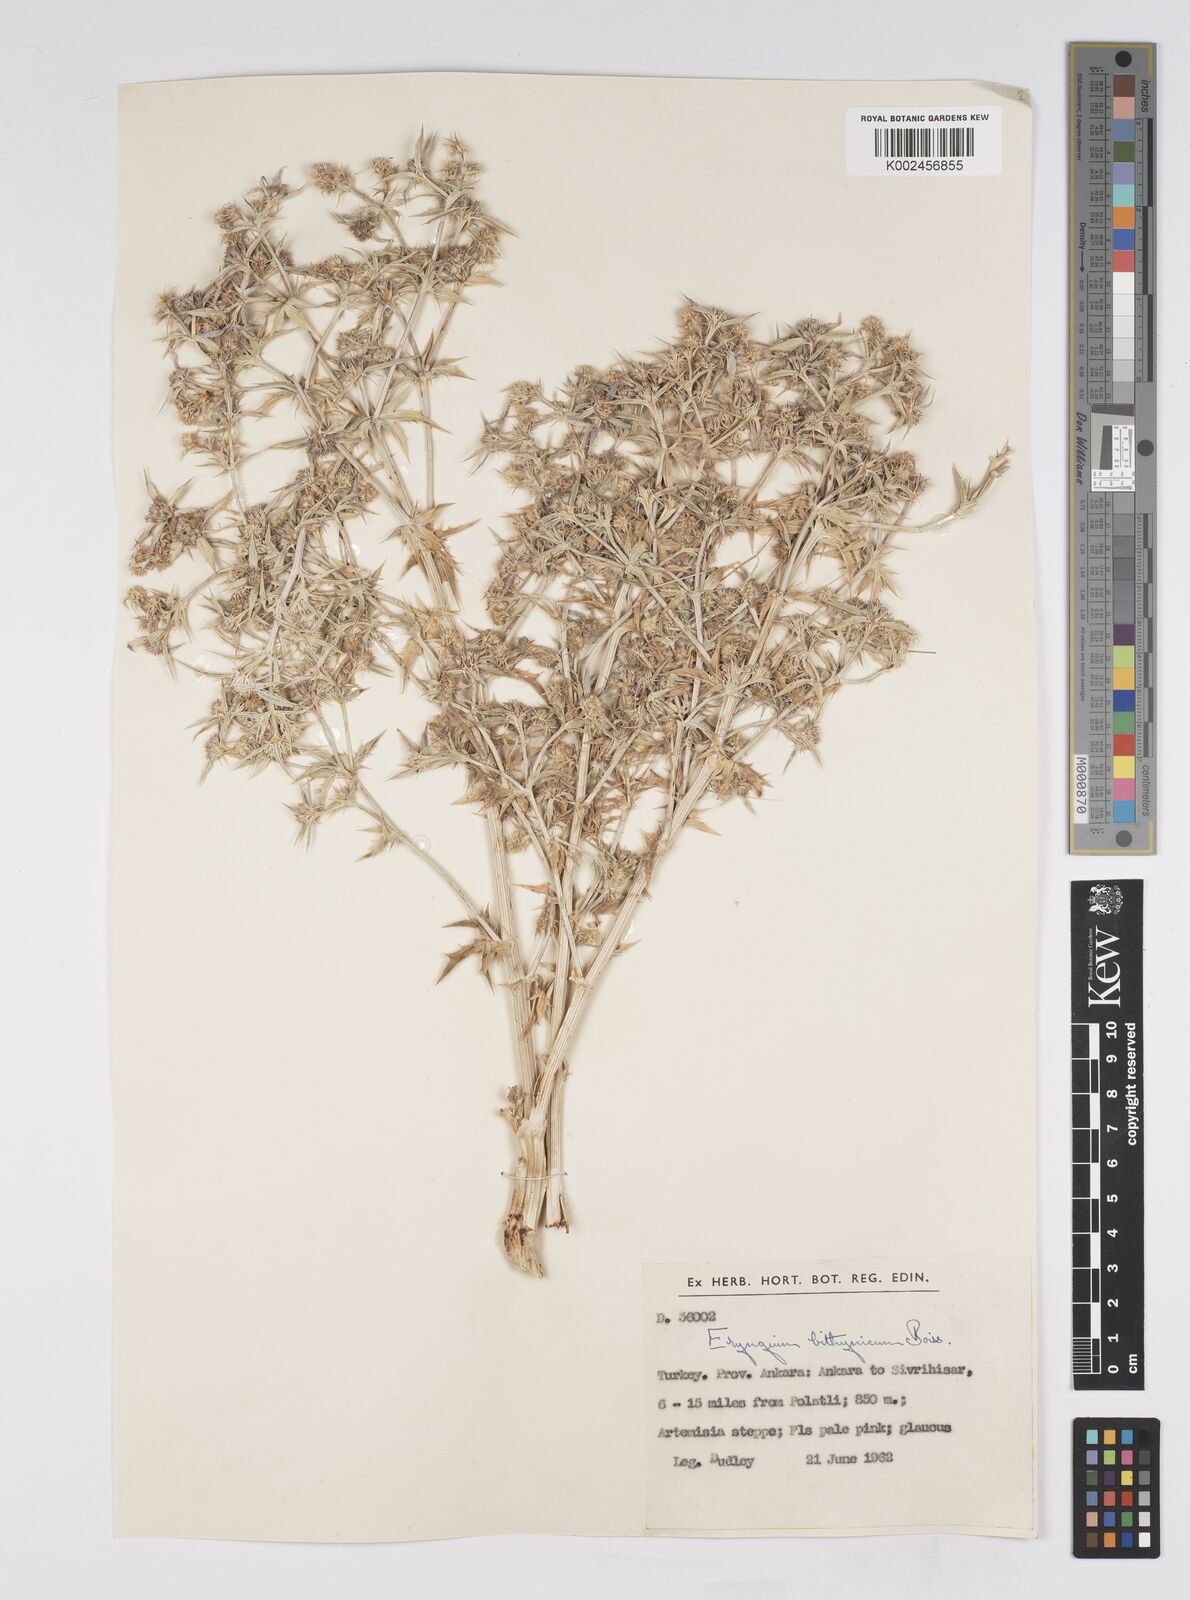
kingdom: Plantae
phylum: Tracheophyta
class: Magnoliopsida
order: Apiales
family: Apiaceae
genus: Eryngium
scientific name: Eryngium bithynicum
